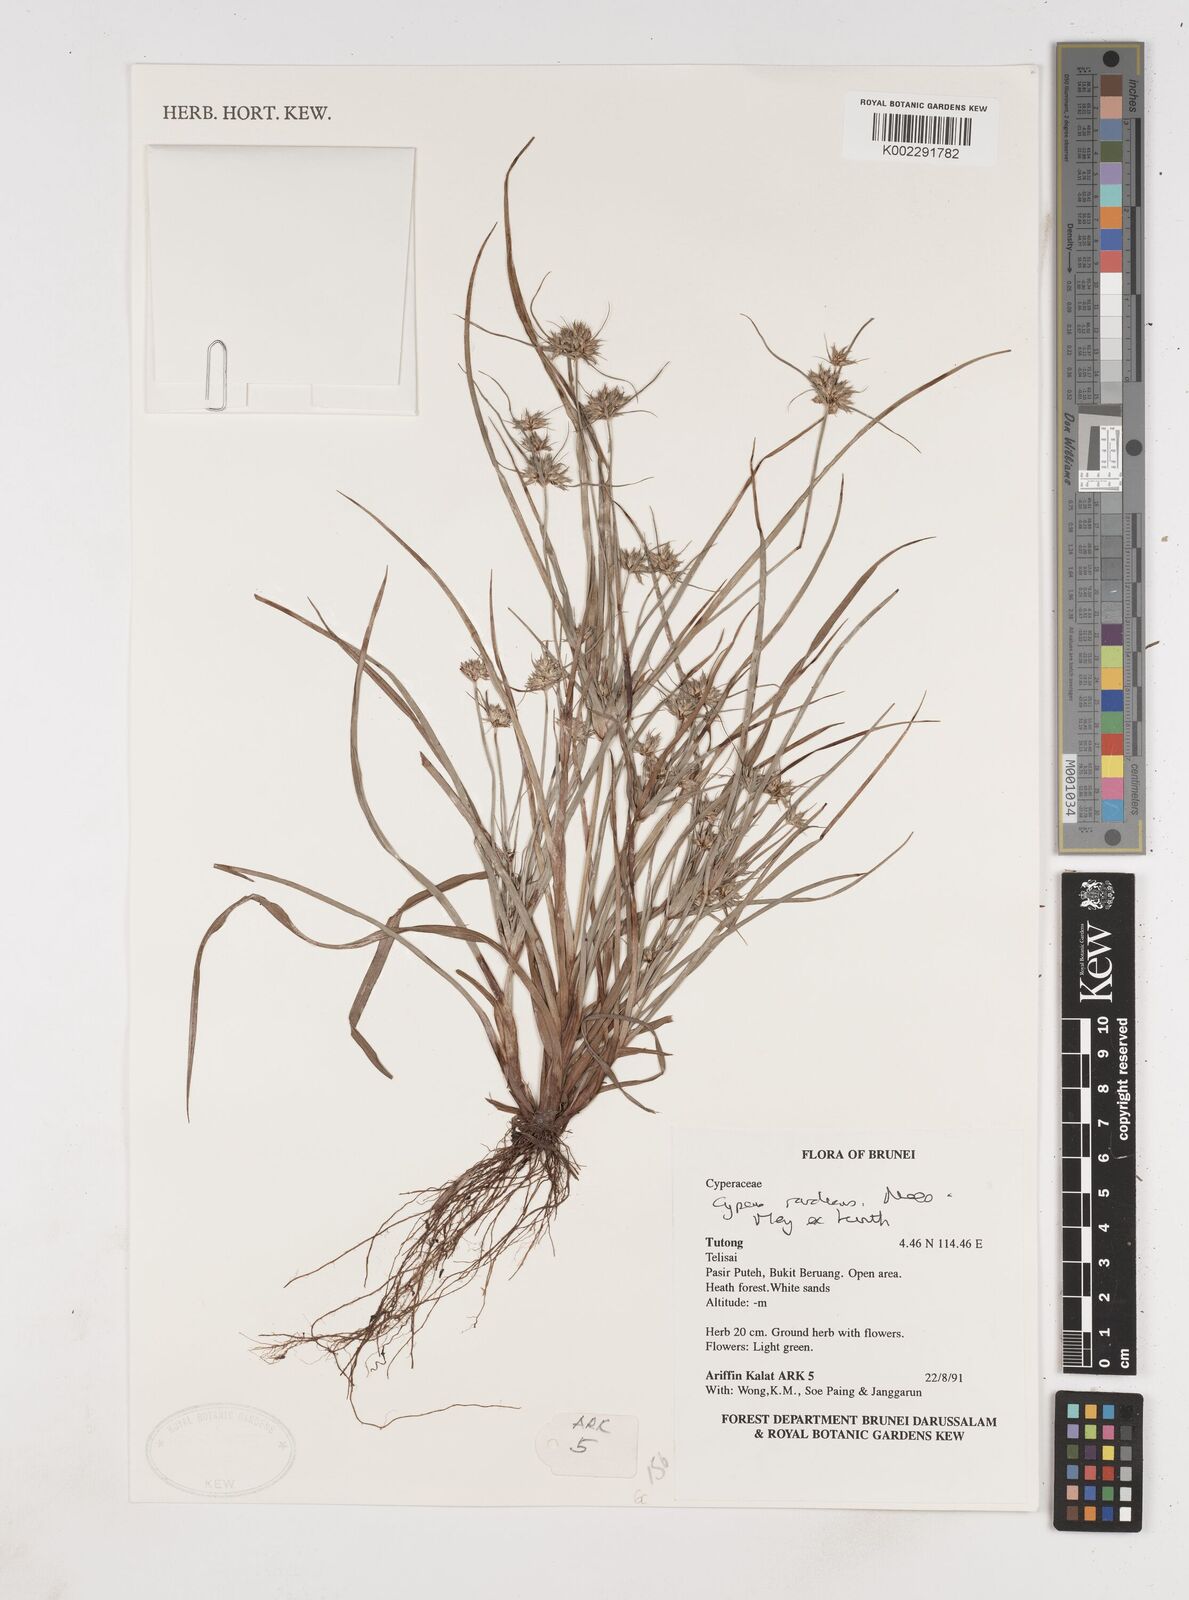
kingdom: Plantae
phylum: Tracheophyta
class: Liliopsida
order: Poales
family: Cyperaceae
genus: Cyperus
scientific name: Cyperus radians
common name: Short-stem cyperus
